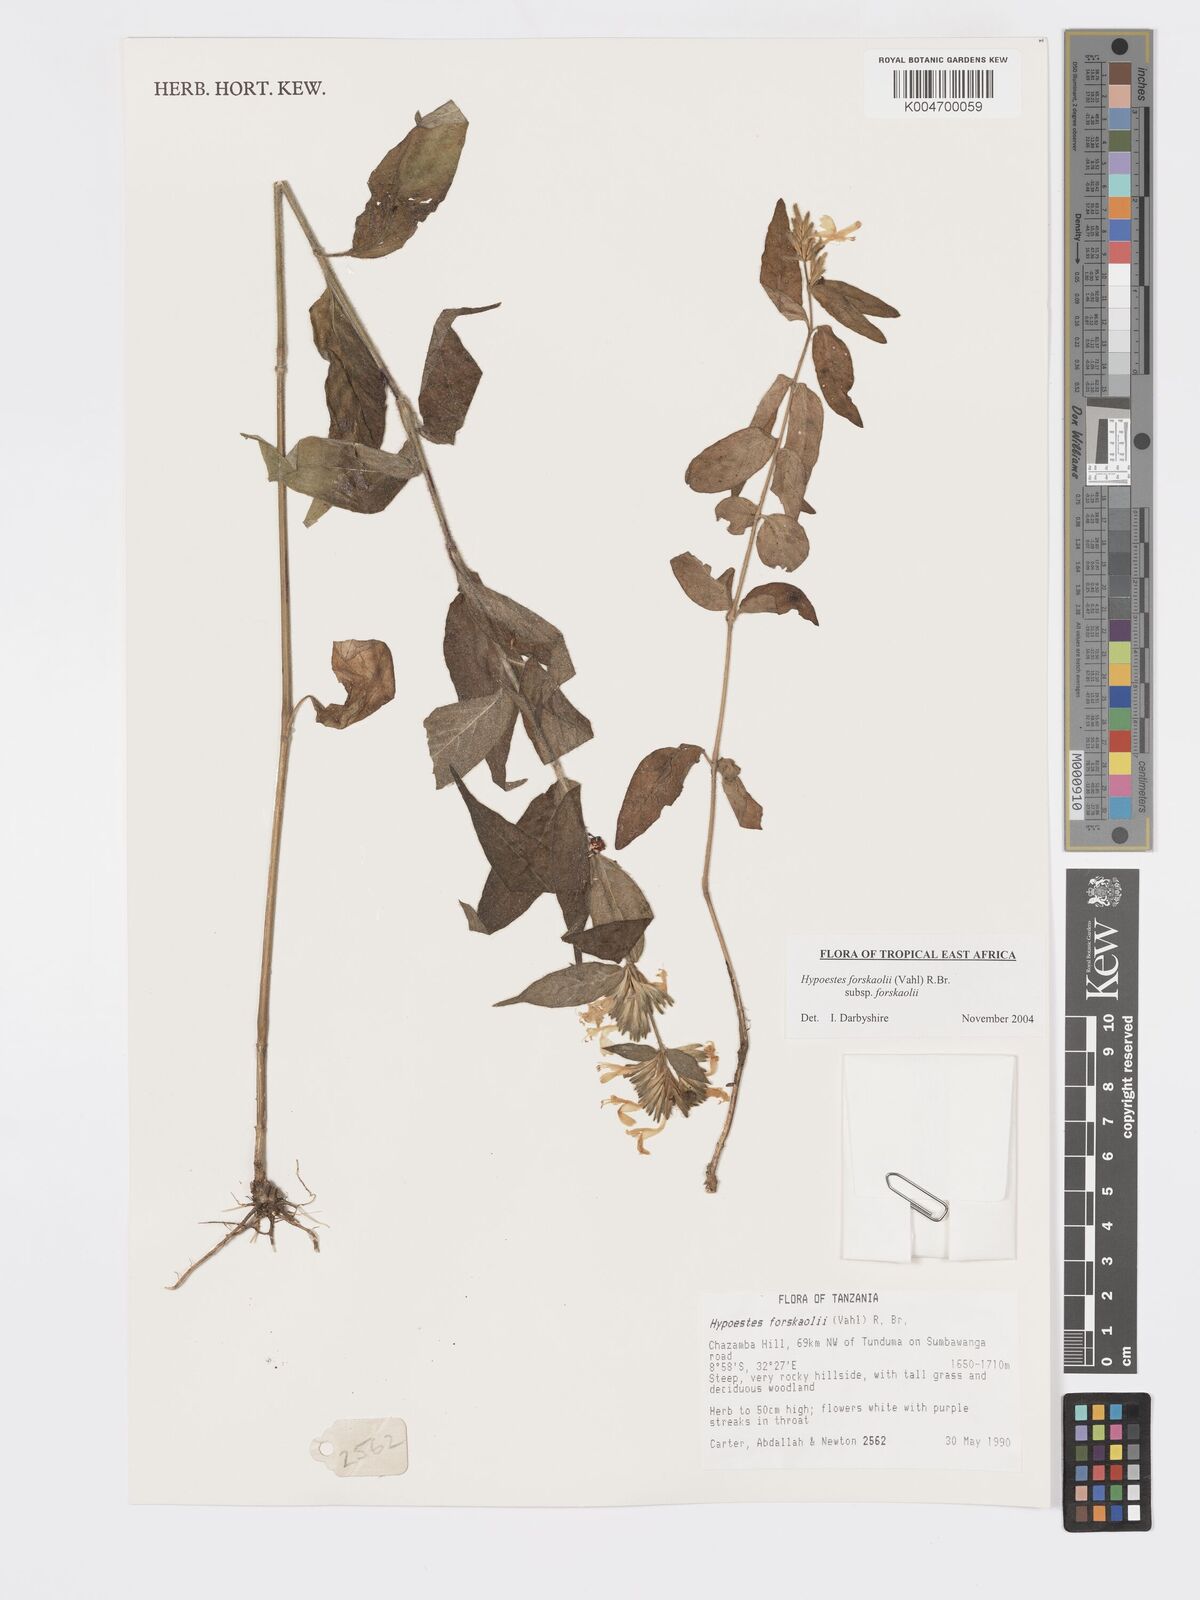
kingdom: Plantae
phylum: Tracheophyta
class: Magnoliopsida
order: Lamiales
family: Acanthaceae
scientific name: Acanthaceae
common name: Acanthaceae
